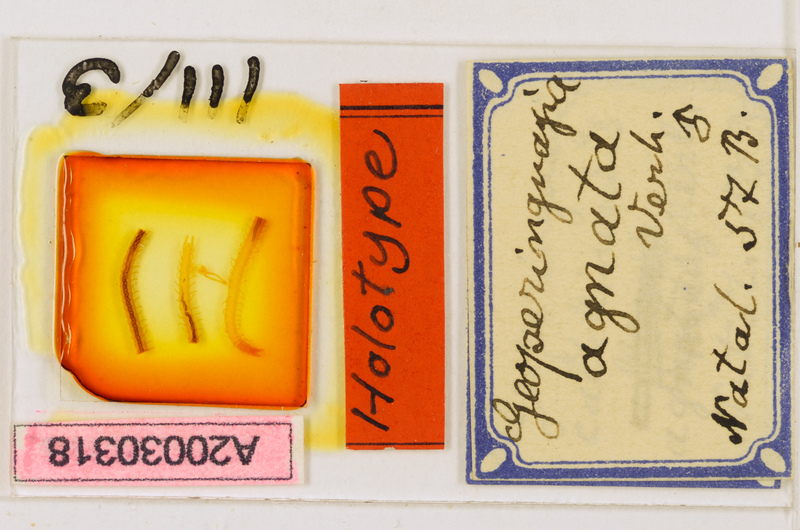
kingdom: Animalia
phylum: Arthropoda
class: Chilopoda
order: Geophilomorpha
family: Geophilidae
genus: Geoperingueyia
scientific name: Geoperingueyia agnatha
